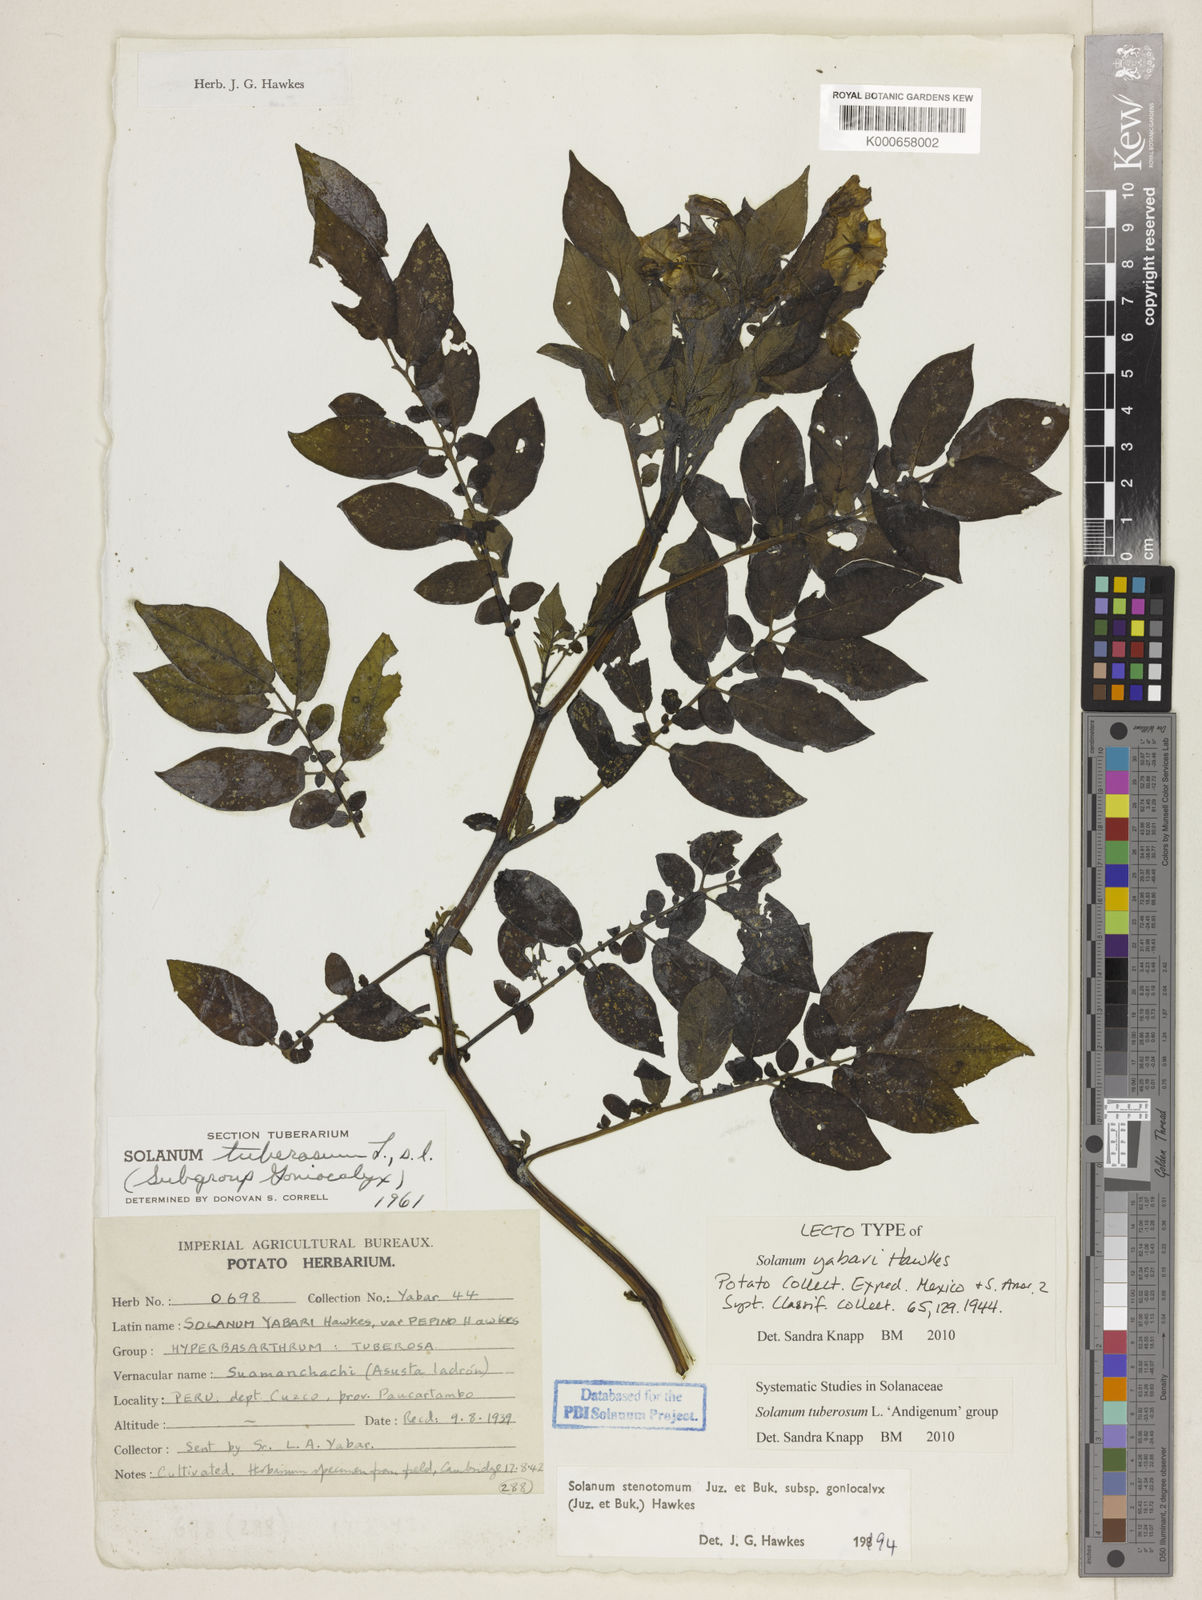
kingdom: Plantae
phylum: Tracheophyta
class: Magnoliopsida
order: Solanales
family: Solanaceae
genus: Solanum
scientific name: Solanum tuberosum
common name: Potato
